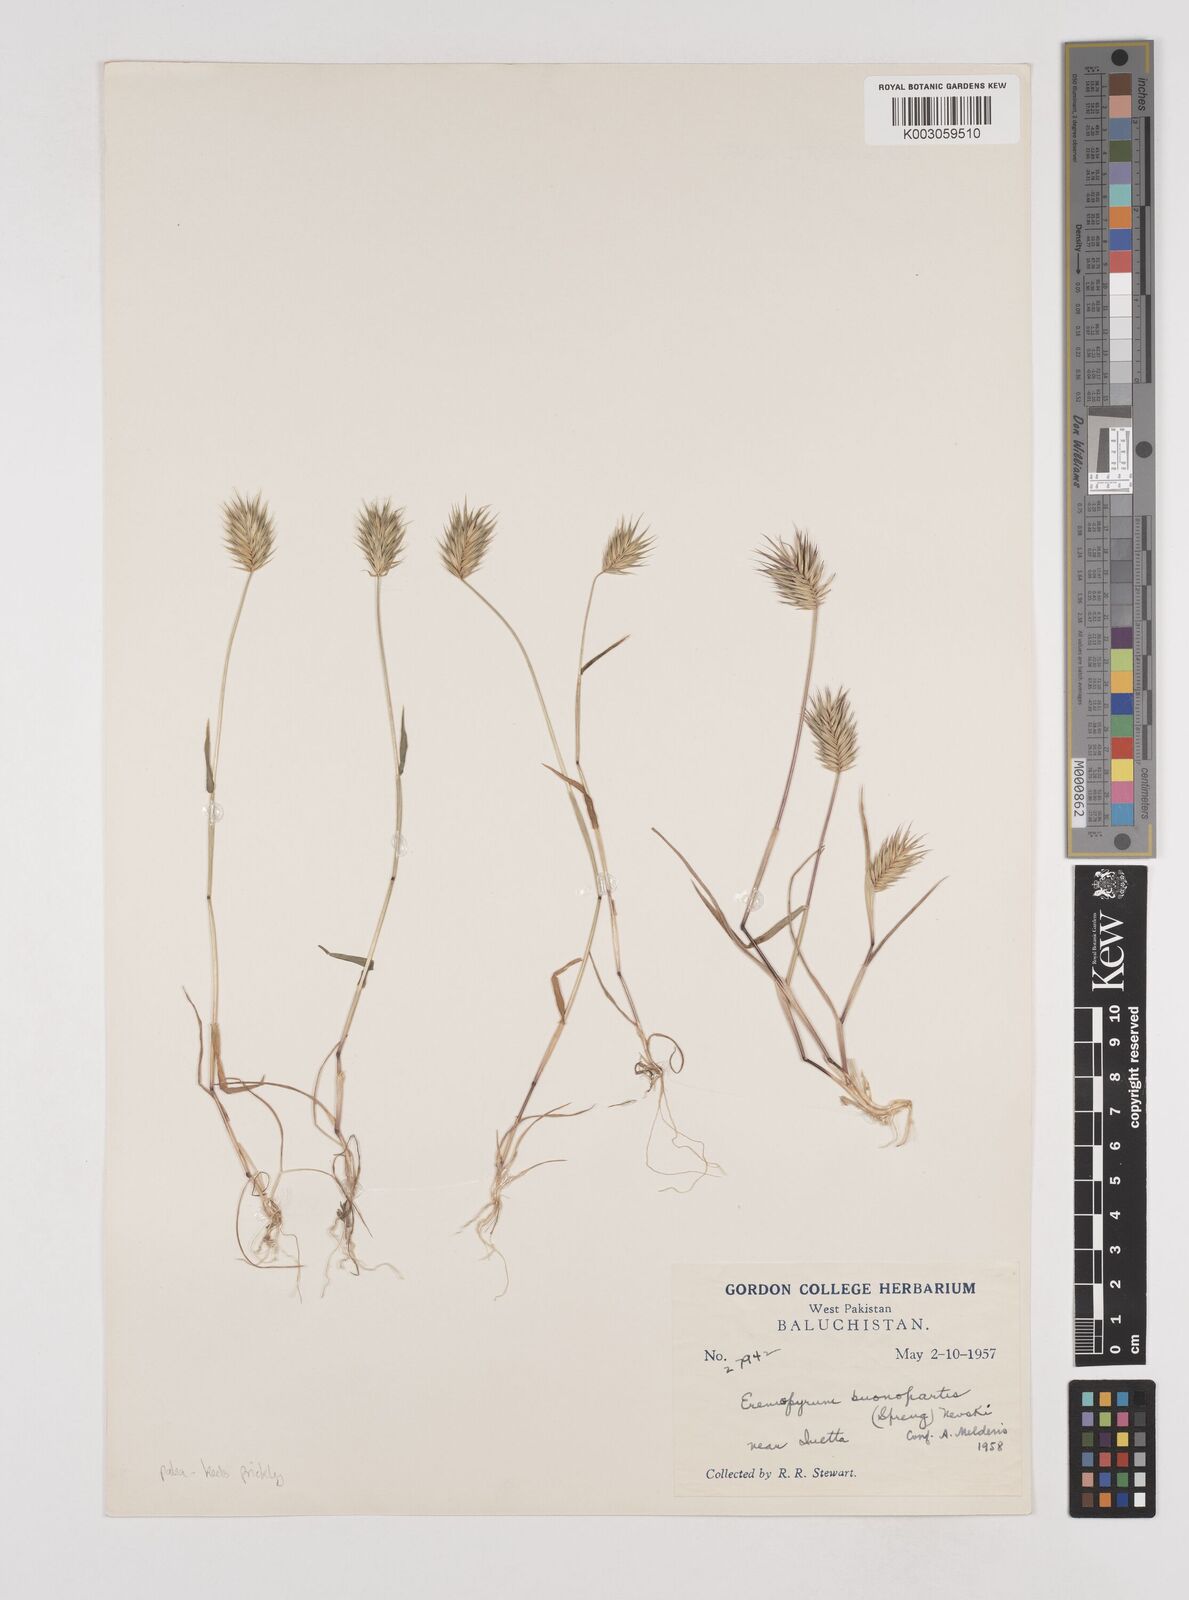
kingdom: Plantae
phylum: Tracheophyta
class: Liliopsida
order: Poales
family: Poaceae
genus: Eremopyrum
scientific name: Eremopyrum bonaepartis
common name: Tapertip false wheatgrass
